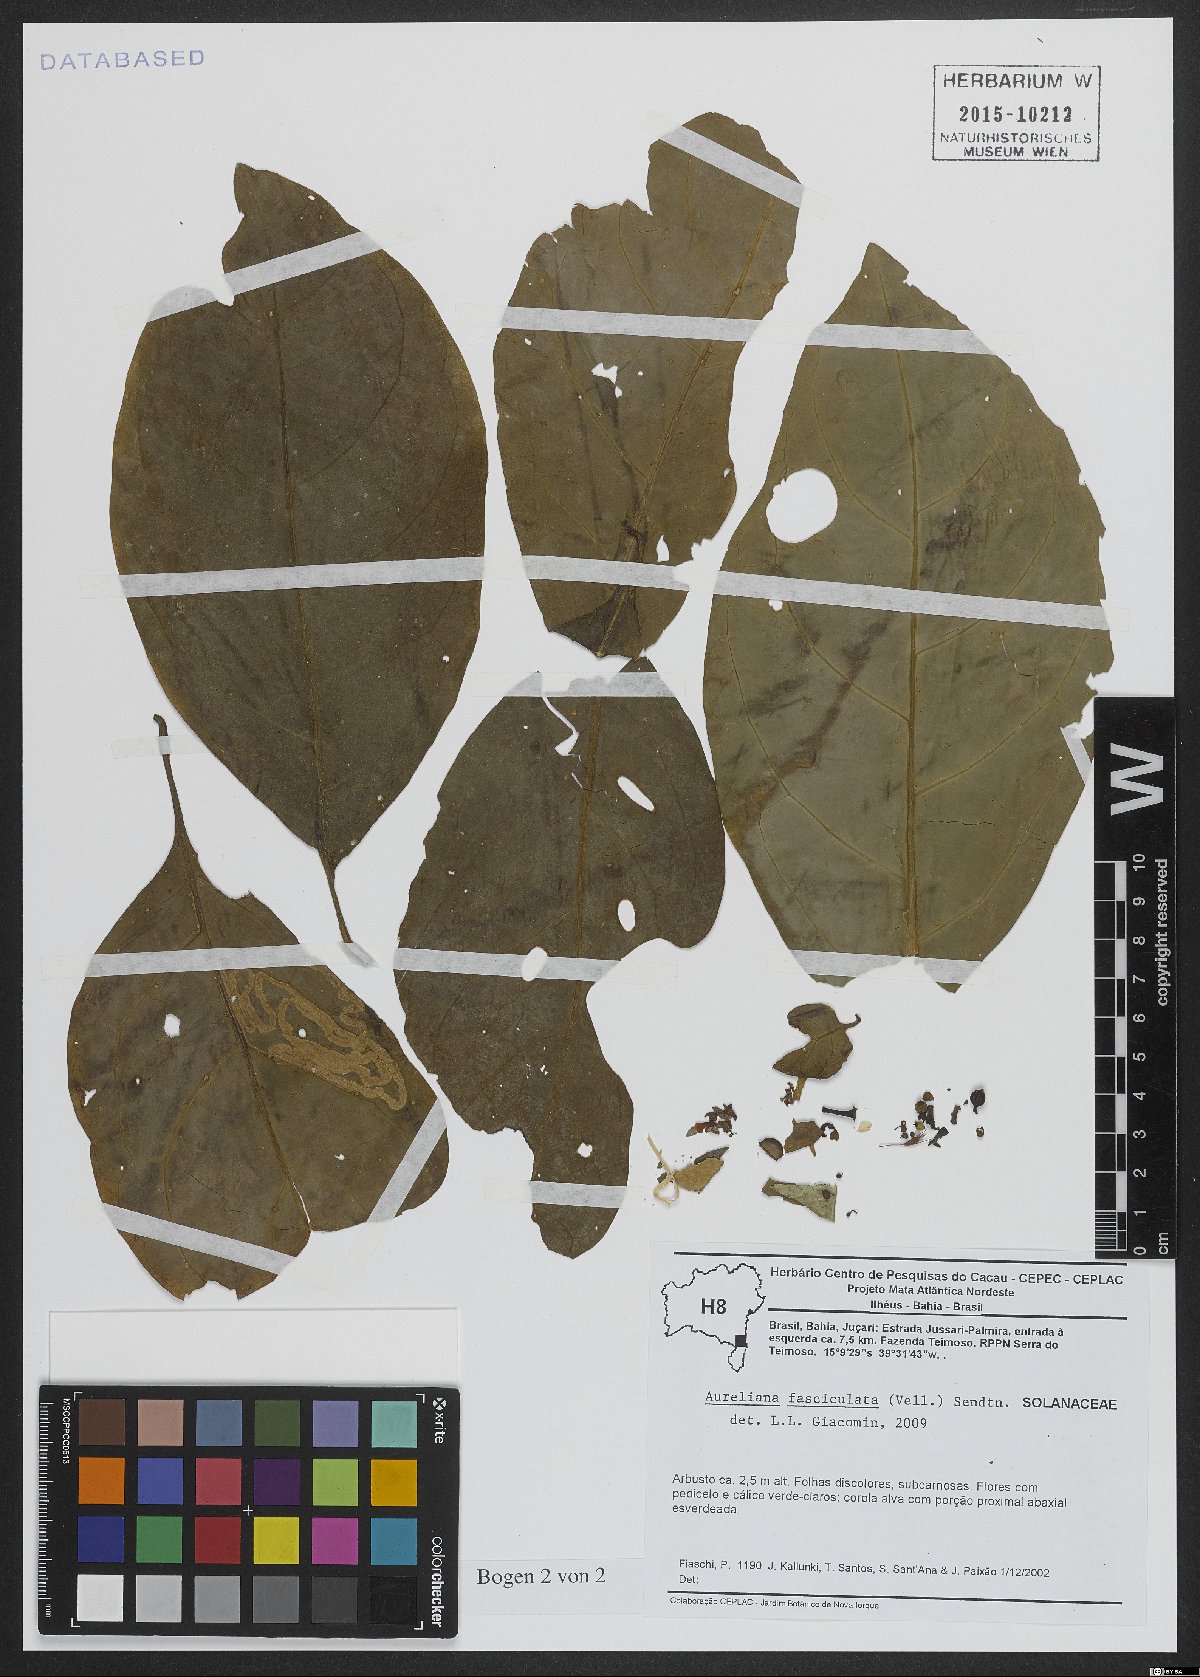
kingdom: Plantae
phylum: Tracheophyta
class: Magnoliopsida
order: Solanales
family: Solanaceae
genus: Athenaea
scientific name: Athenaea fasciculata
